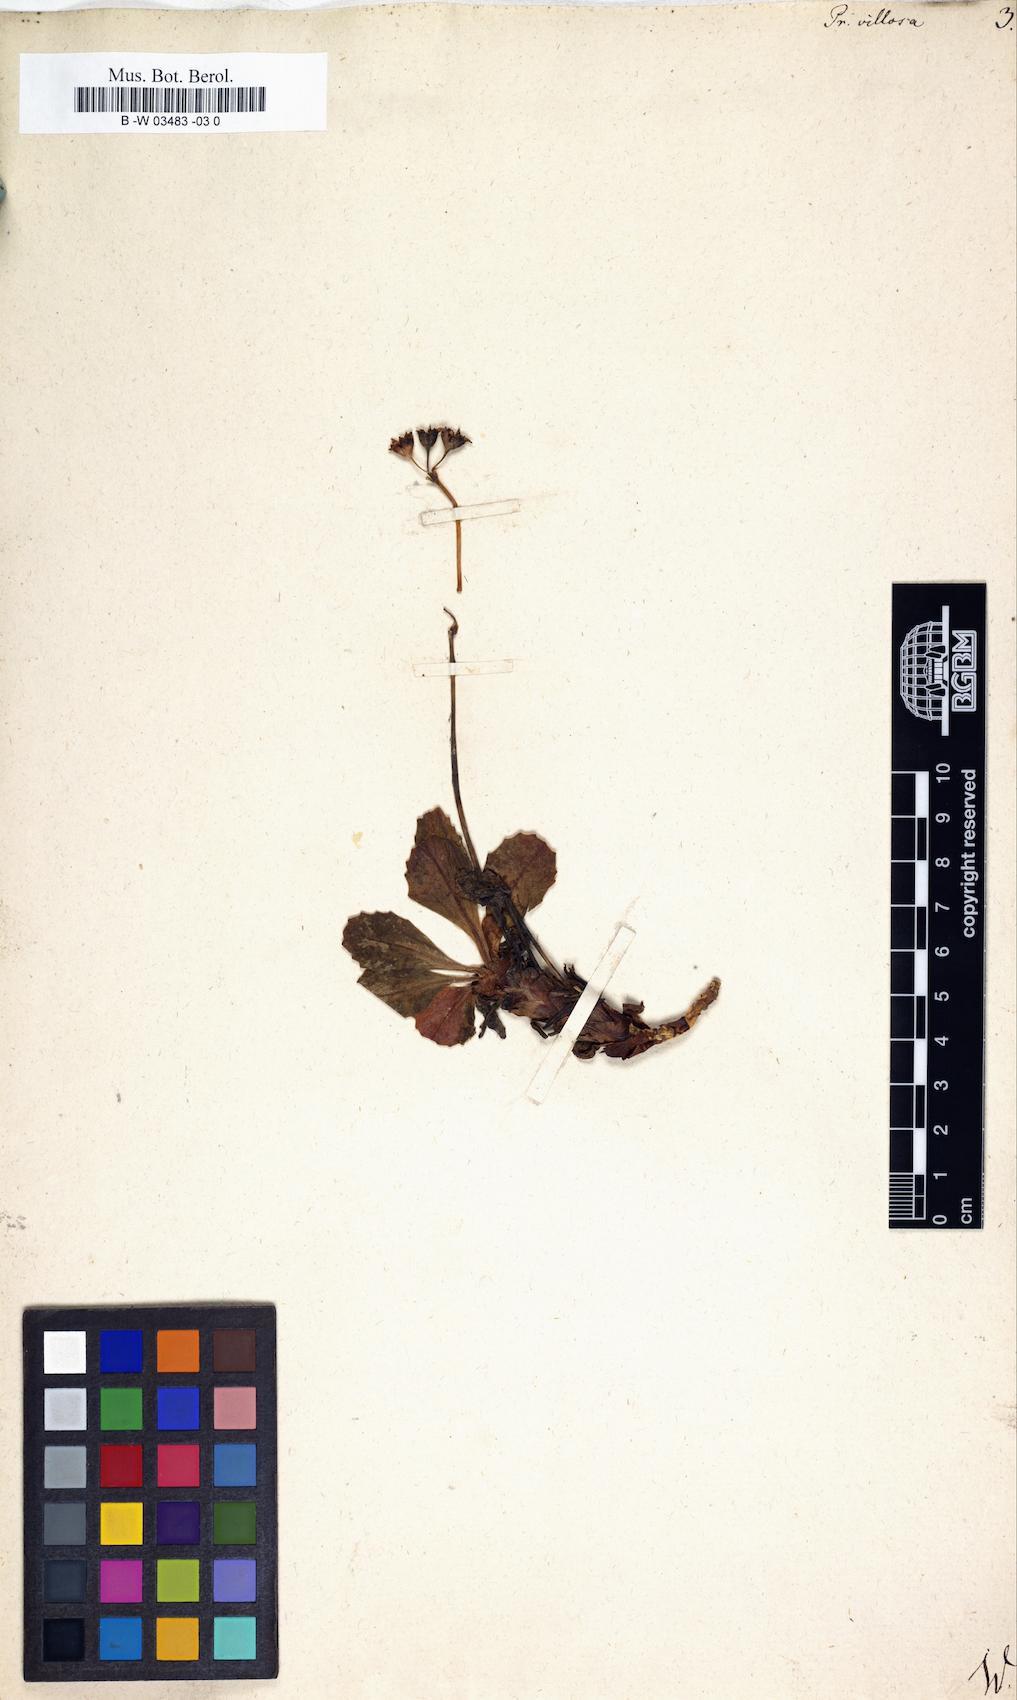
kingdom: Plantae
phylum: Tracheophyta
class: Magnoliopsida
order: Ericales
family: Primulaceae
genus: Primula
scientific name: Primula villosa
